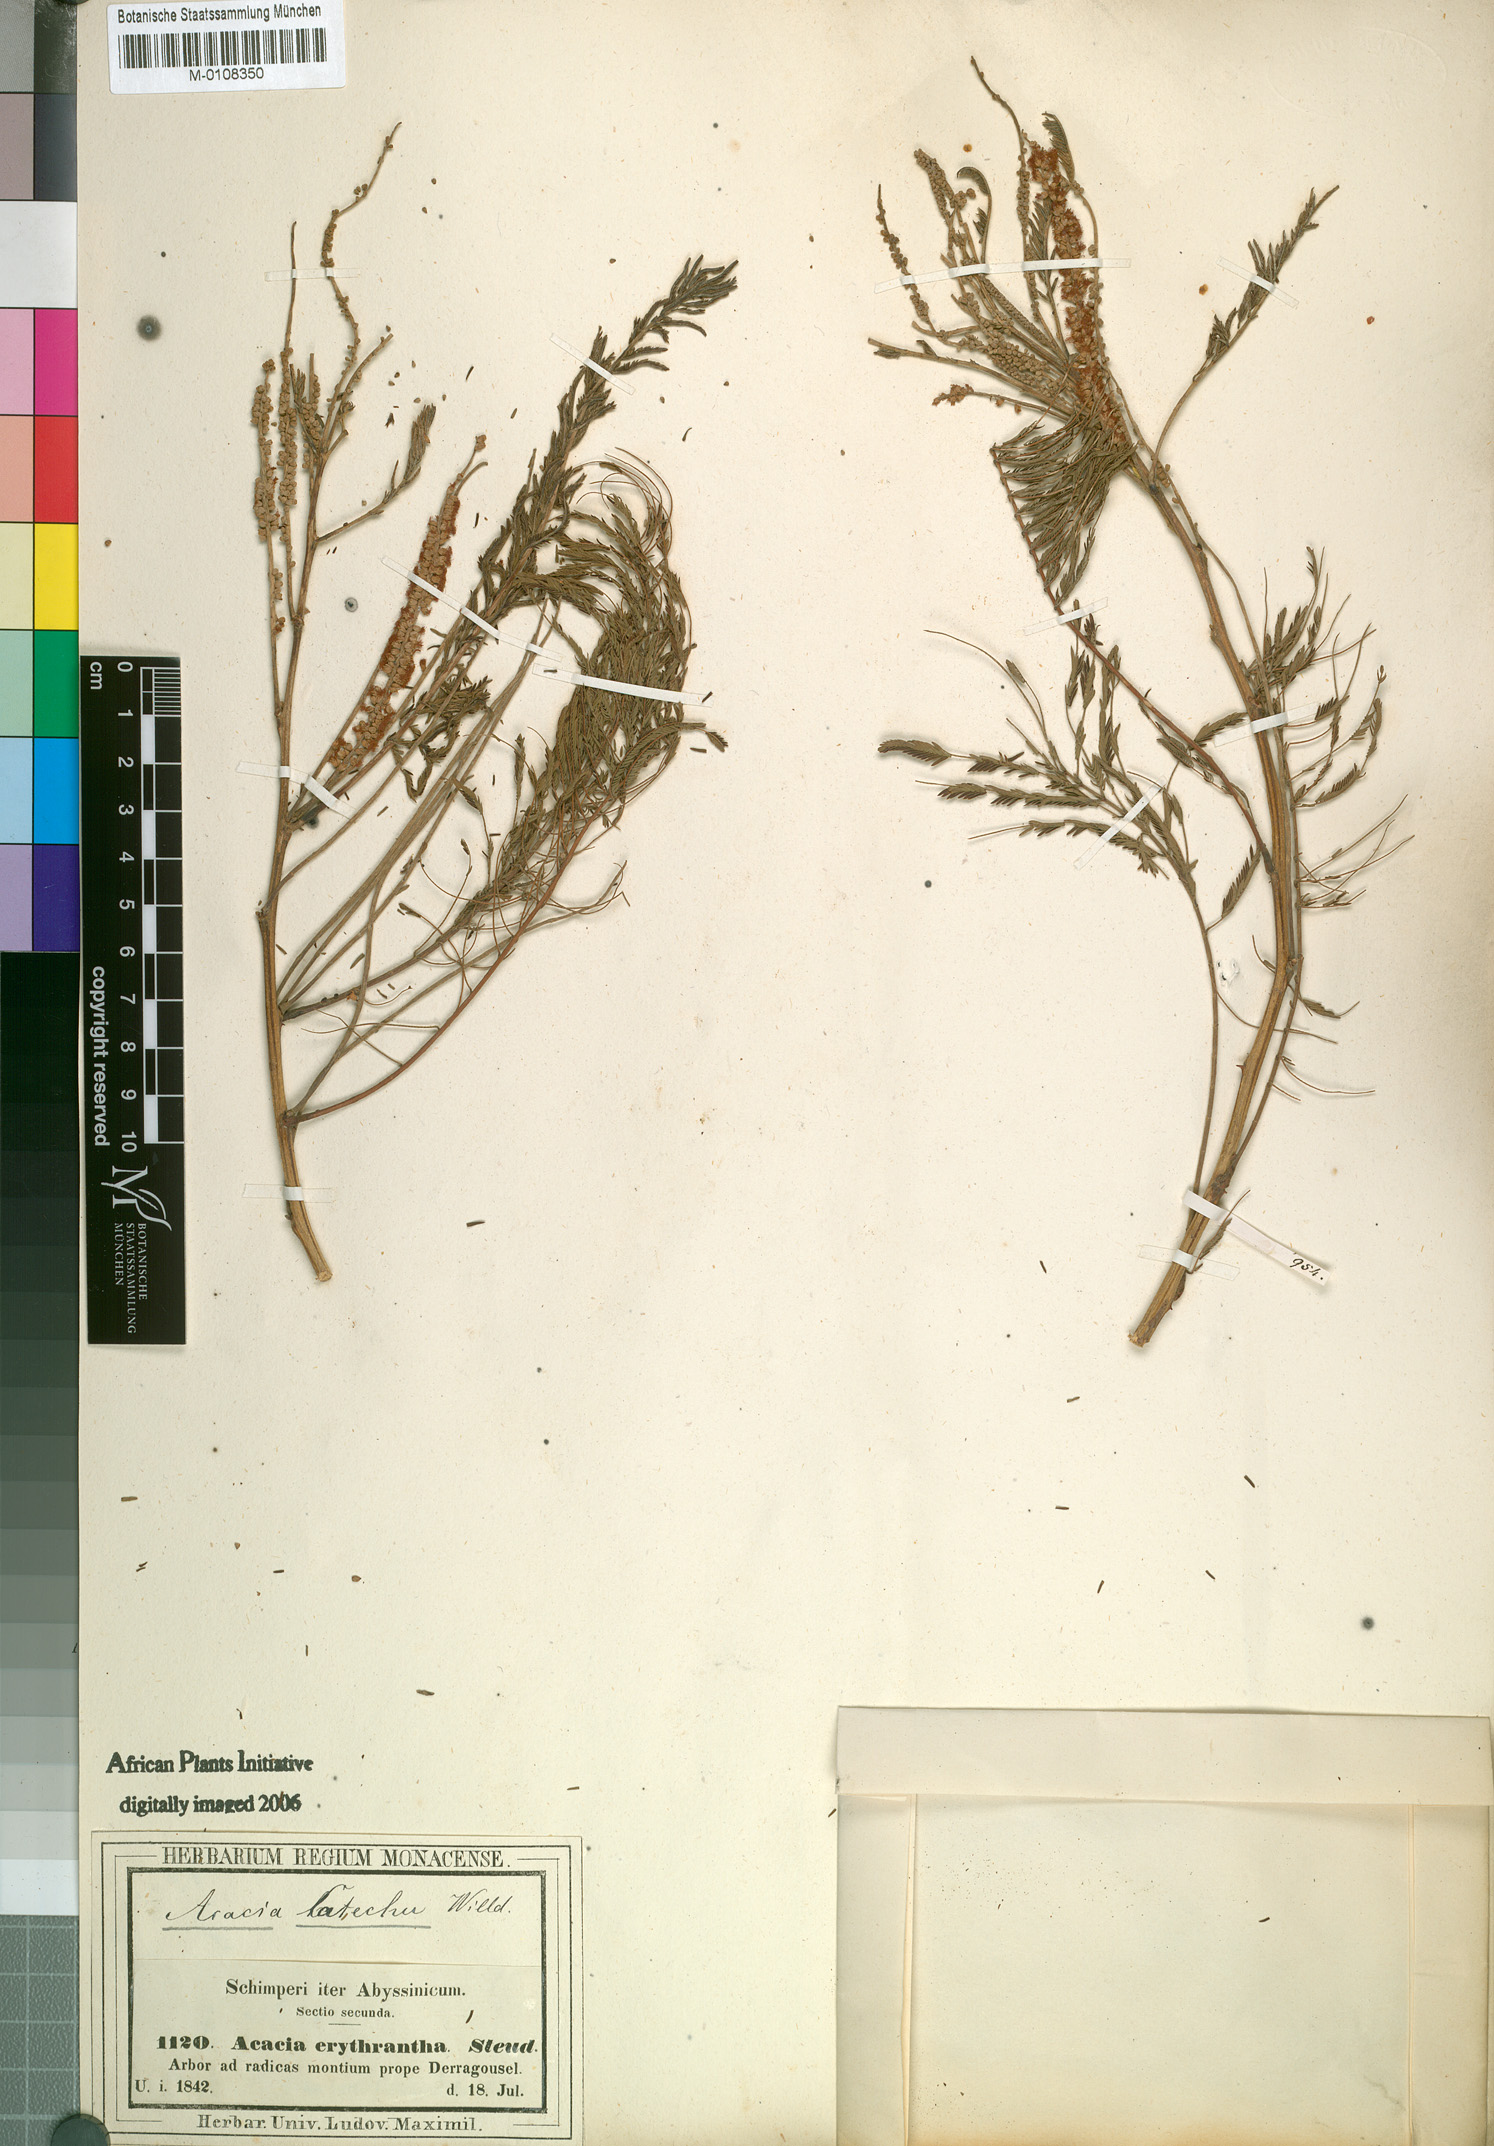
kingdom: Plantae
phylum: Tracheophyta
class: Magnoliopsida
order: Fabales
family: Fabaceae
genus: Senegalia
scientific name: Senegalia polyacantha
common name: Whitethorn
